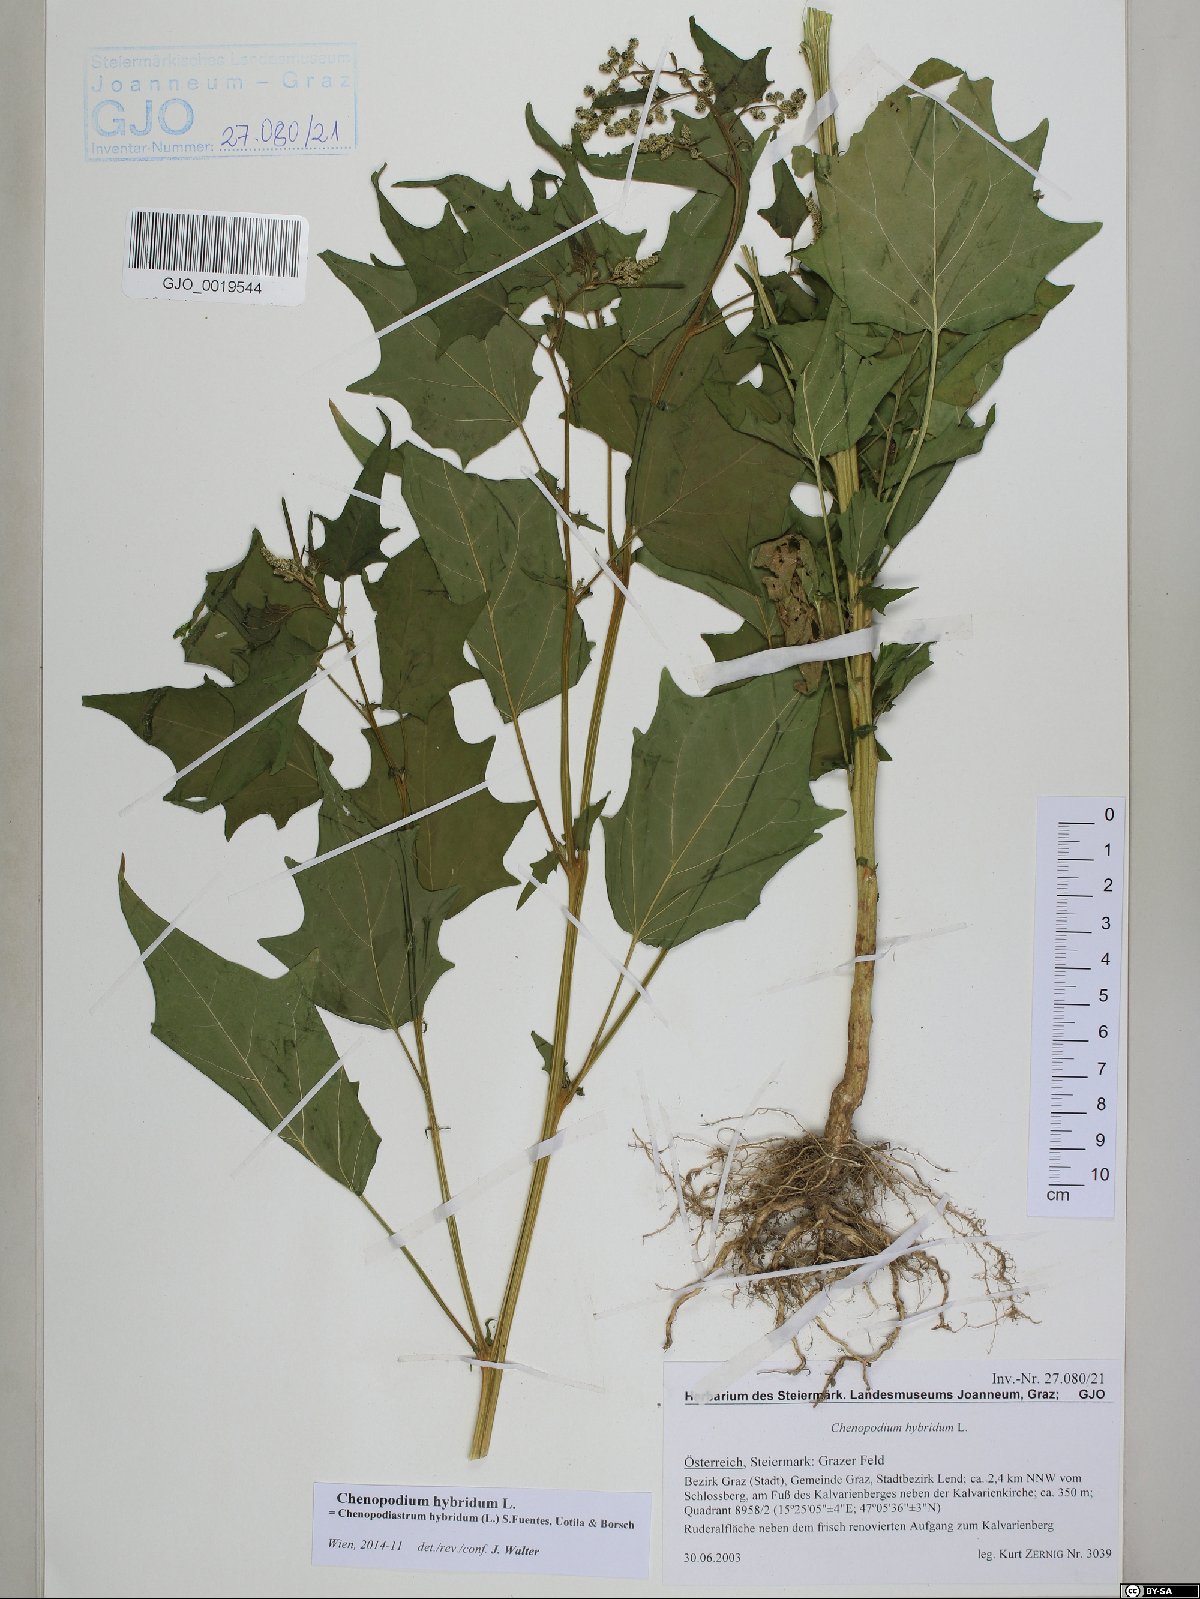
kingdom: Plantae
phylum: Tracheophyta
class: Magnoliopsida
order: Caryophyllales
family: Amaranthaceae
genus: Chenopodiastrum
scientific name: Chenopodiastrum hybridum
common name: Mapleleaf goosefoot
